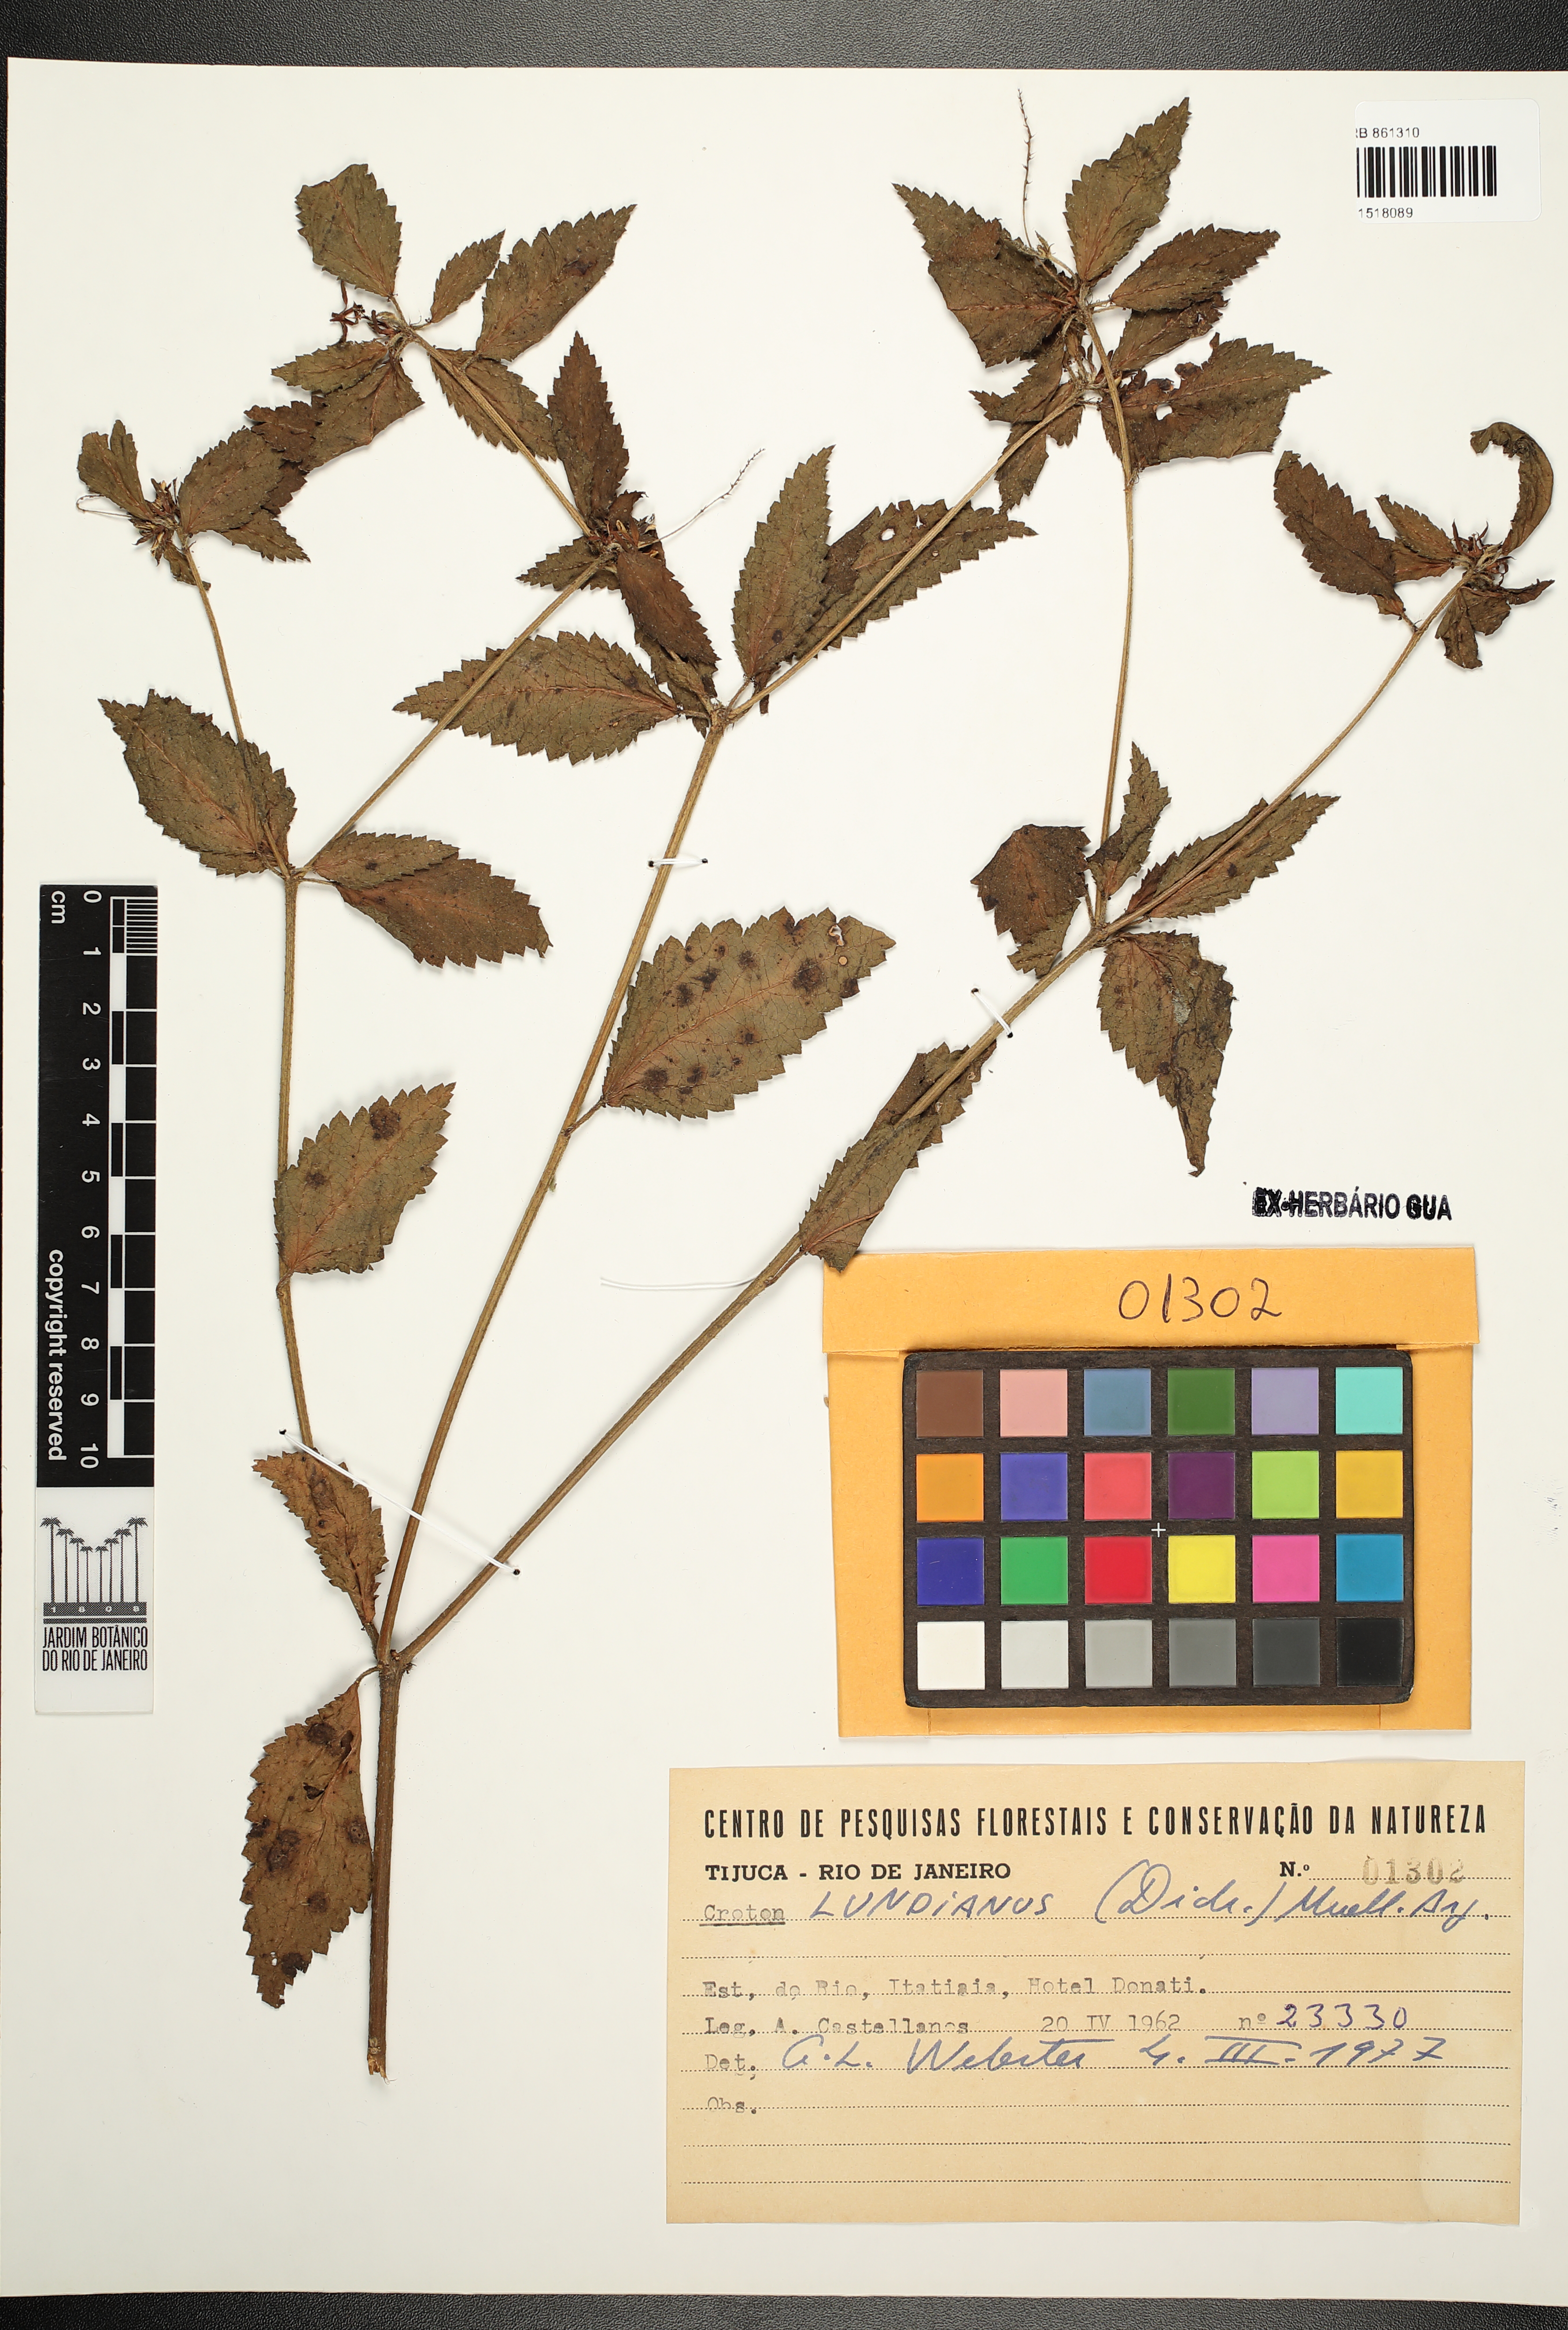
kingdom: Plantae
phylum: Tracheophyta
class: Magnoliopsida
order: Malpighiales
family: Euphorbiaceae
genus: Croton
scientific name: Croton lundianus
